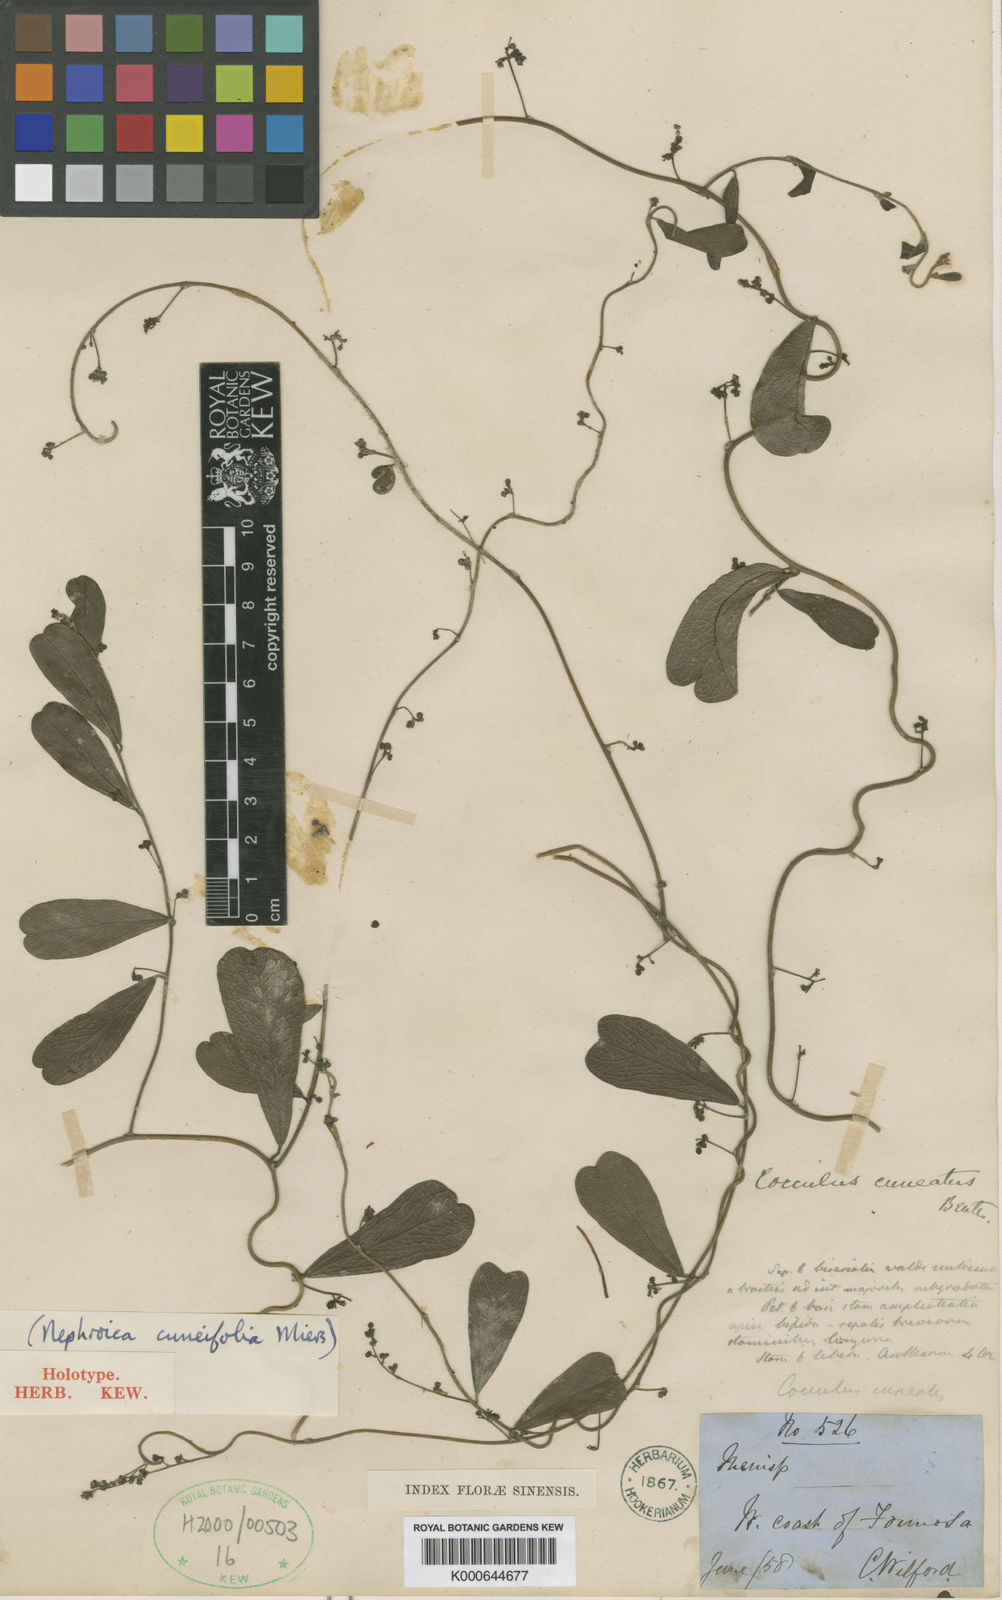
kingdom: Plantae
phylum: Tracheophyta
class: Magnoliopsida
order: Ranunculales
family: Menispermaceae
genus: Cocculus
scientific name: Cocculus orbiculatus
